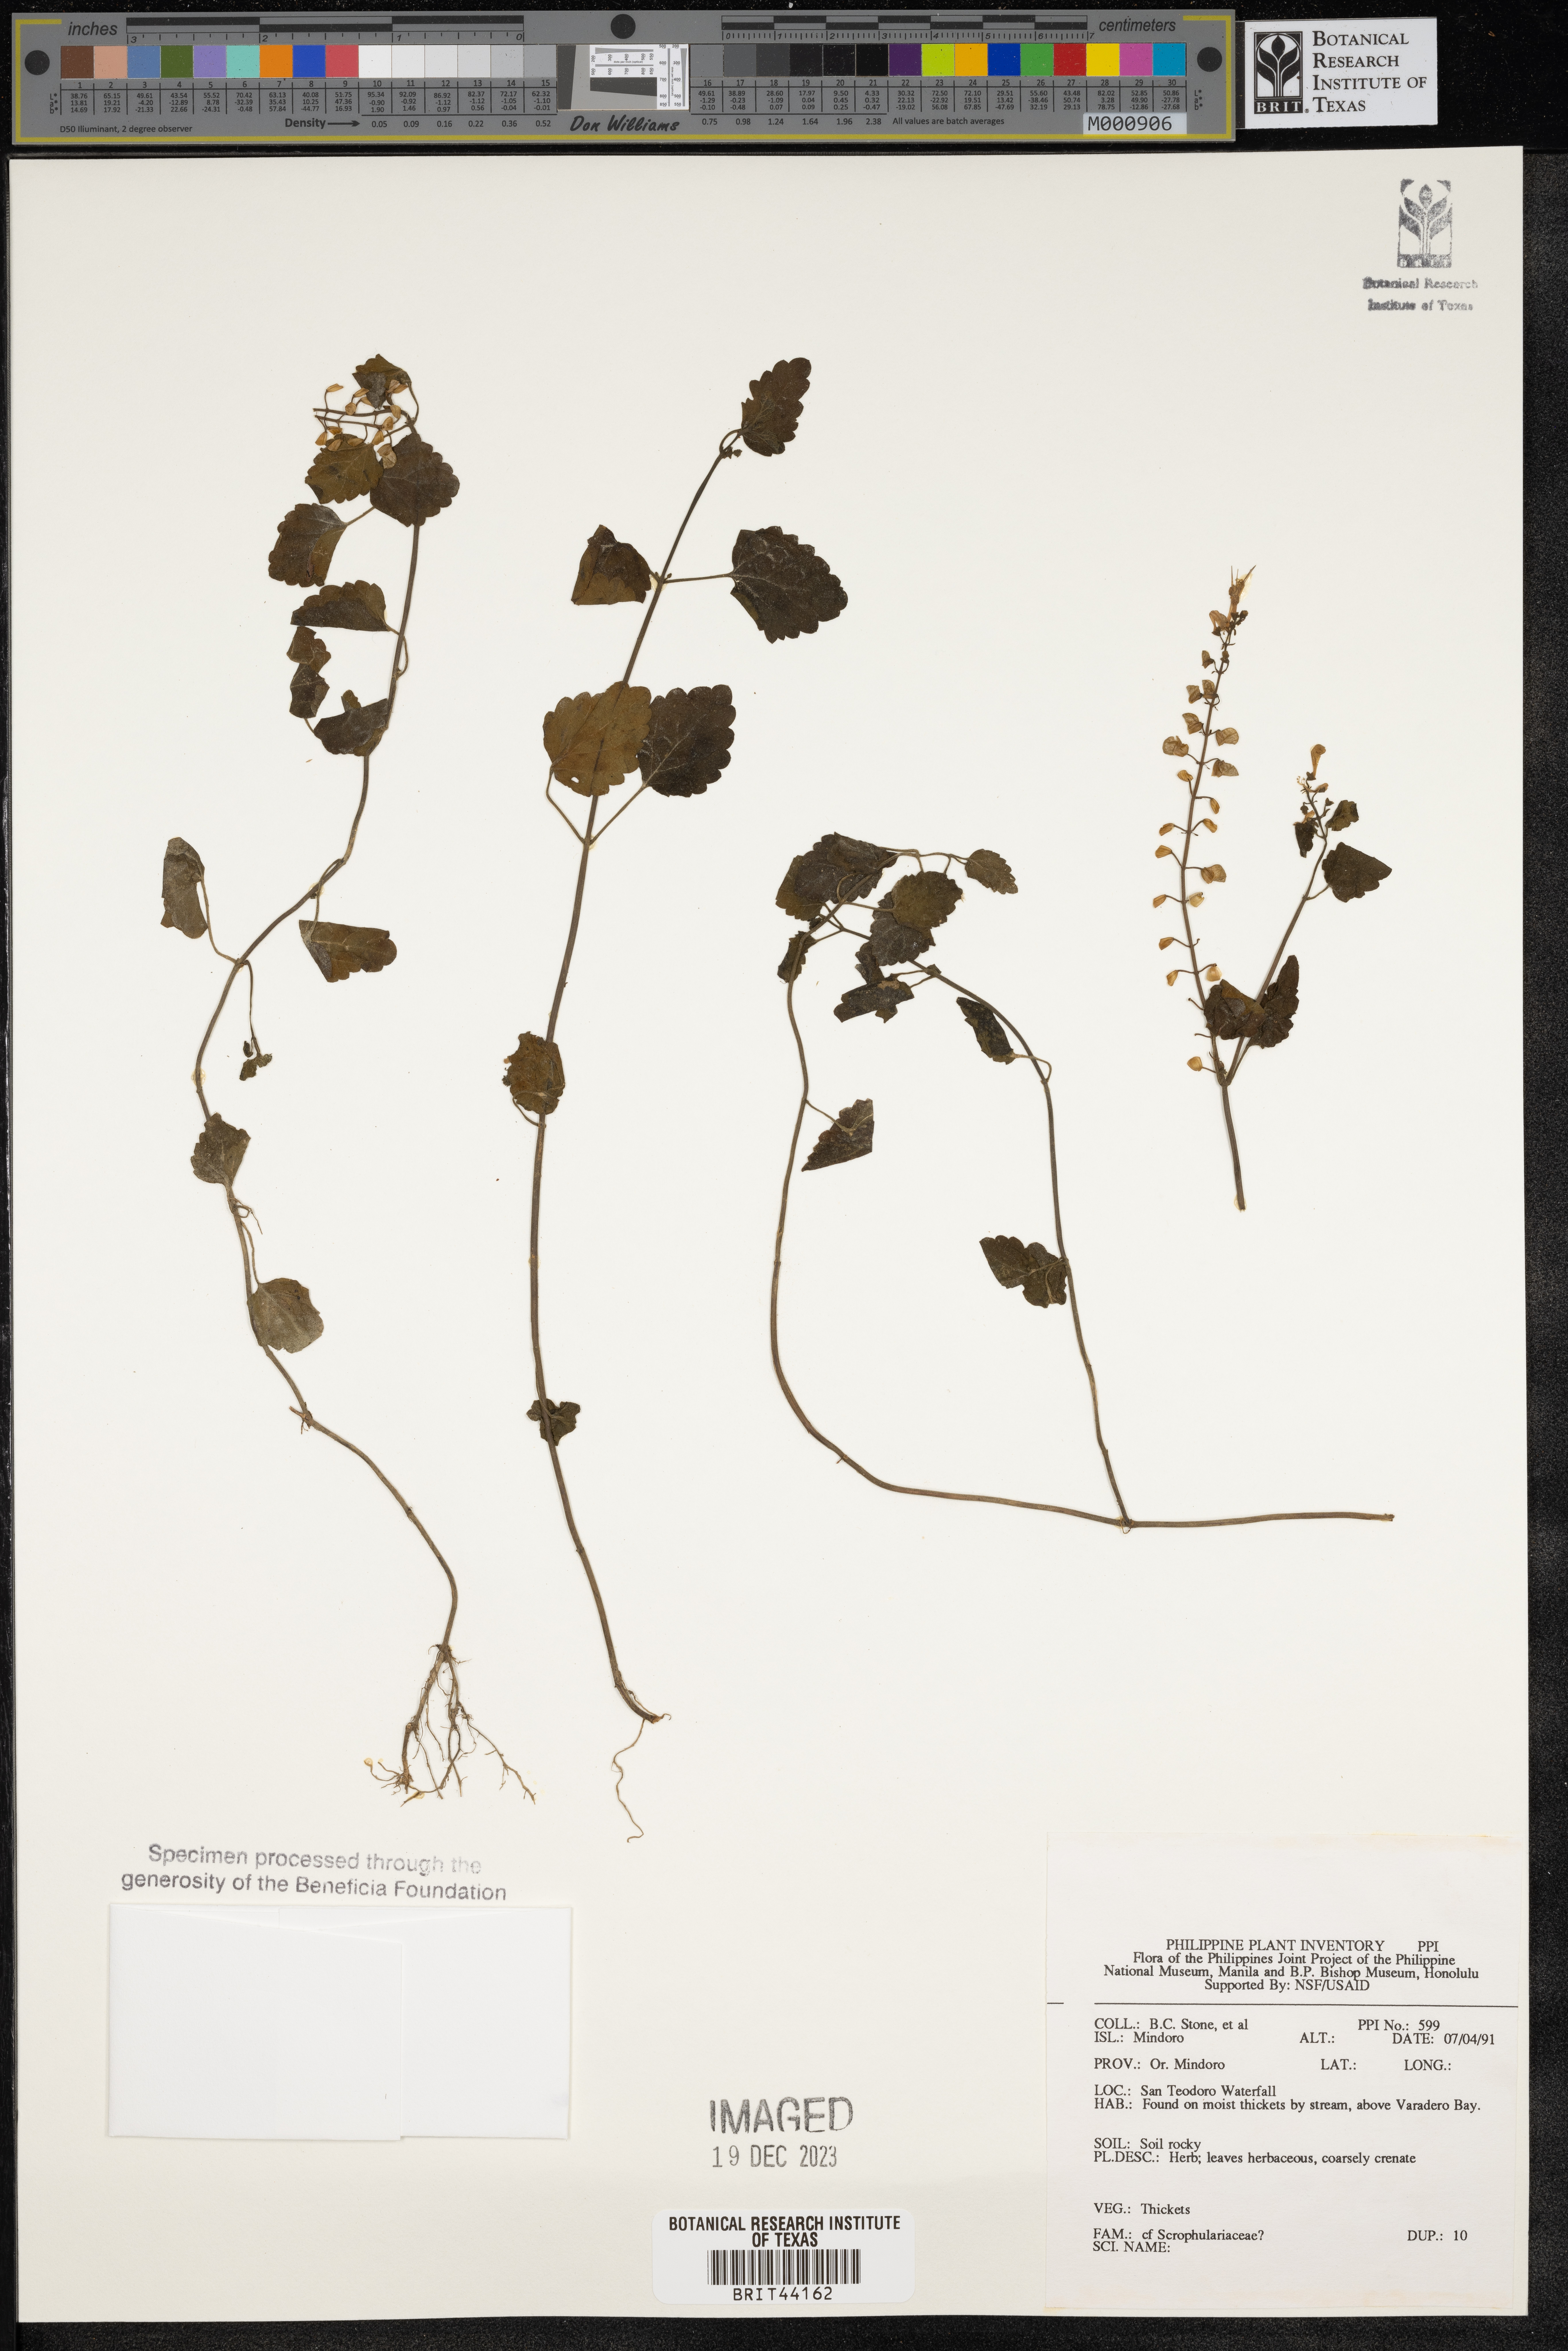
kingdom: Plantae
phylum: Tracheophyta
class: Magnoliopsida
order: Lamiales
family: Scrophulariaceae
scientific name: Scrophulariaceae
